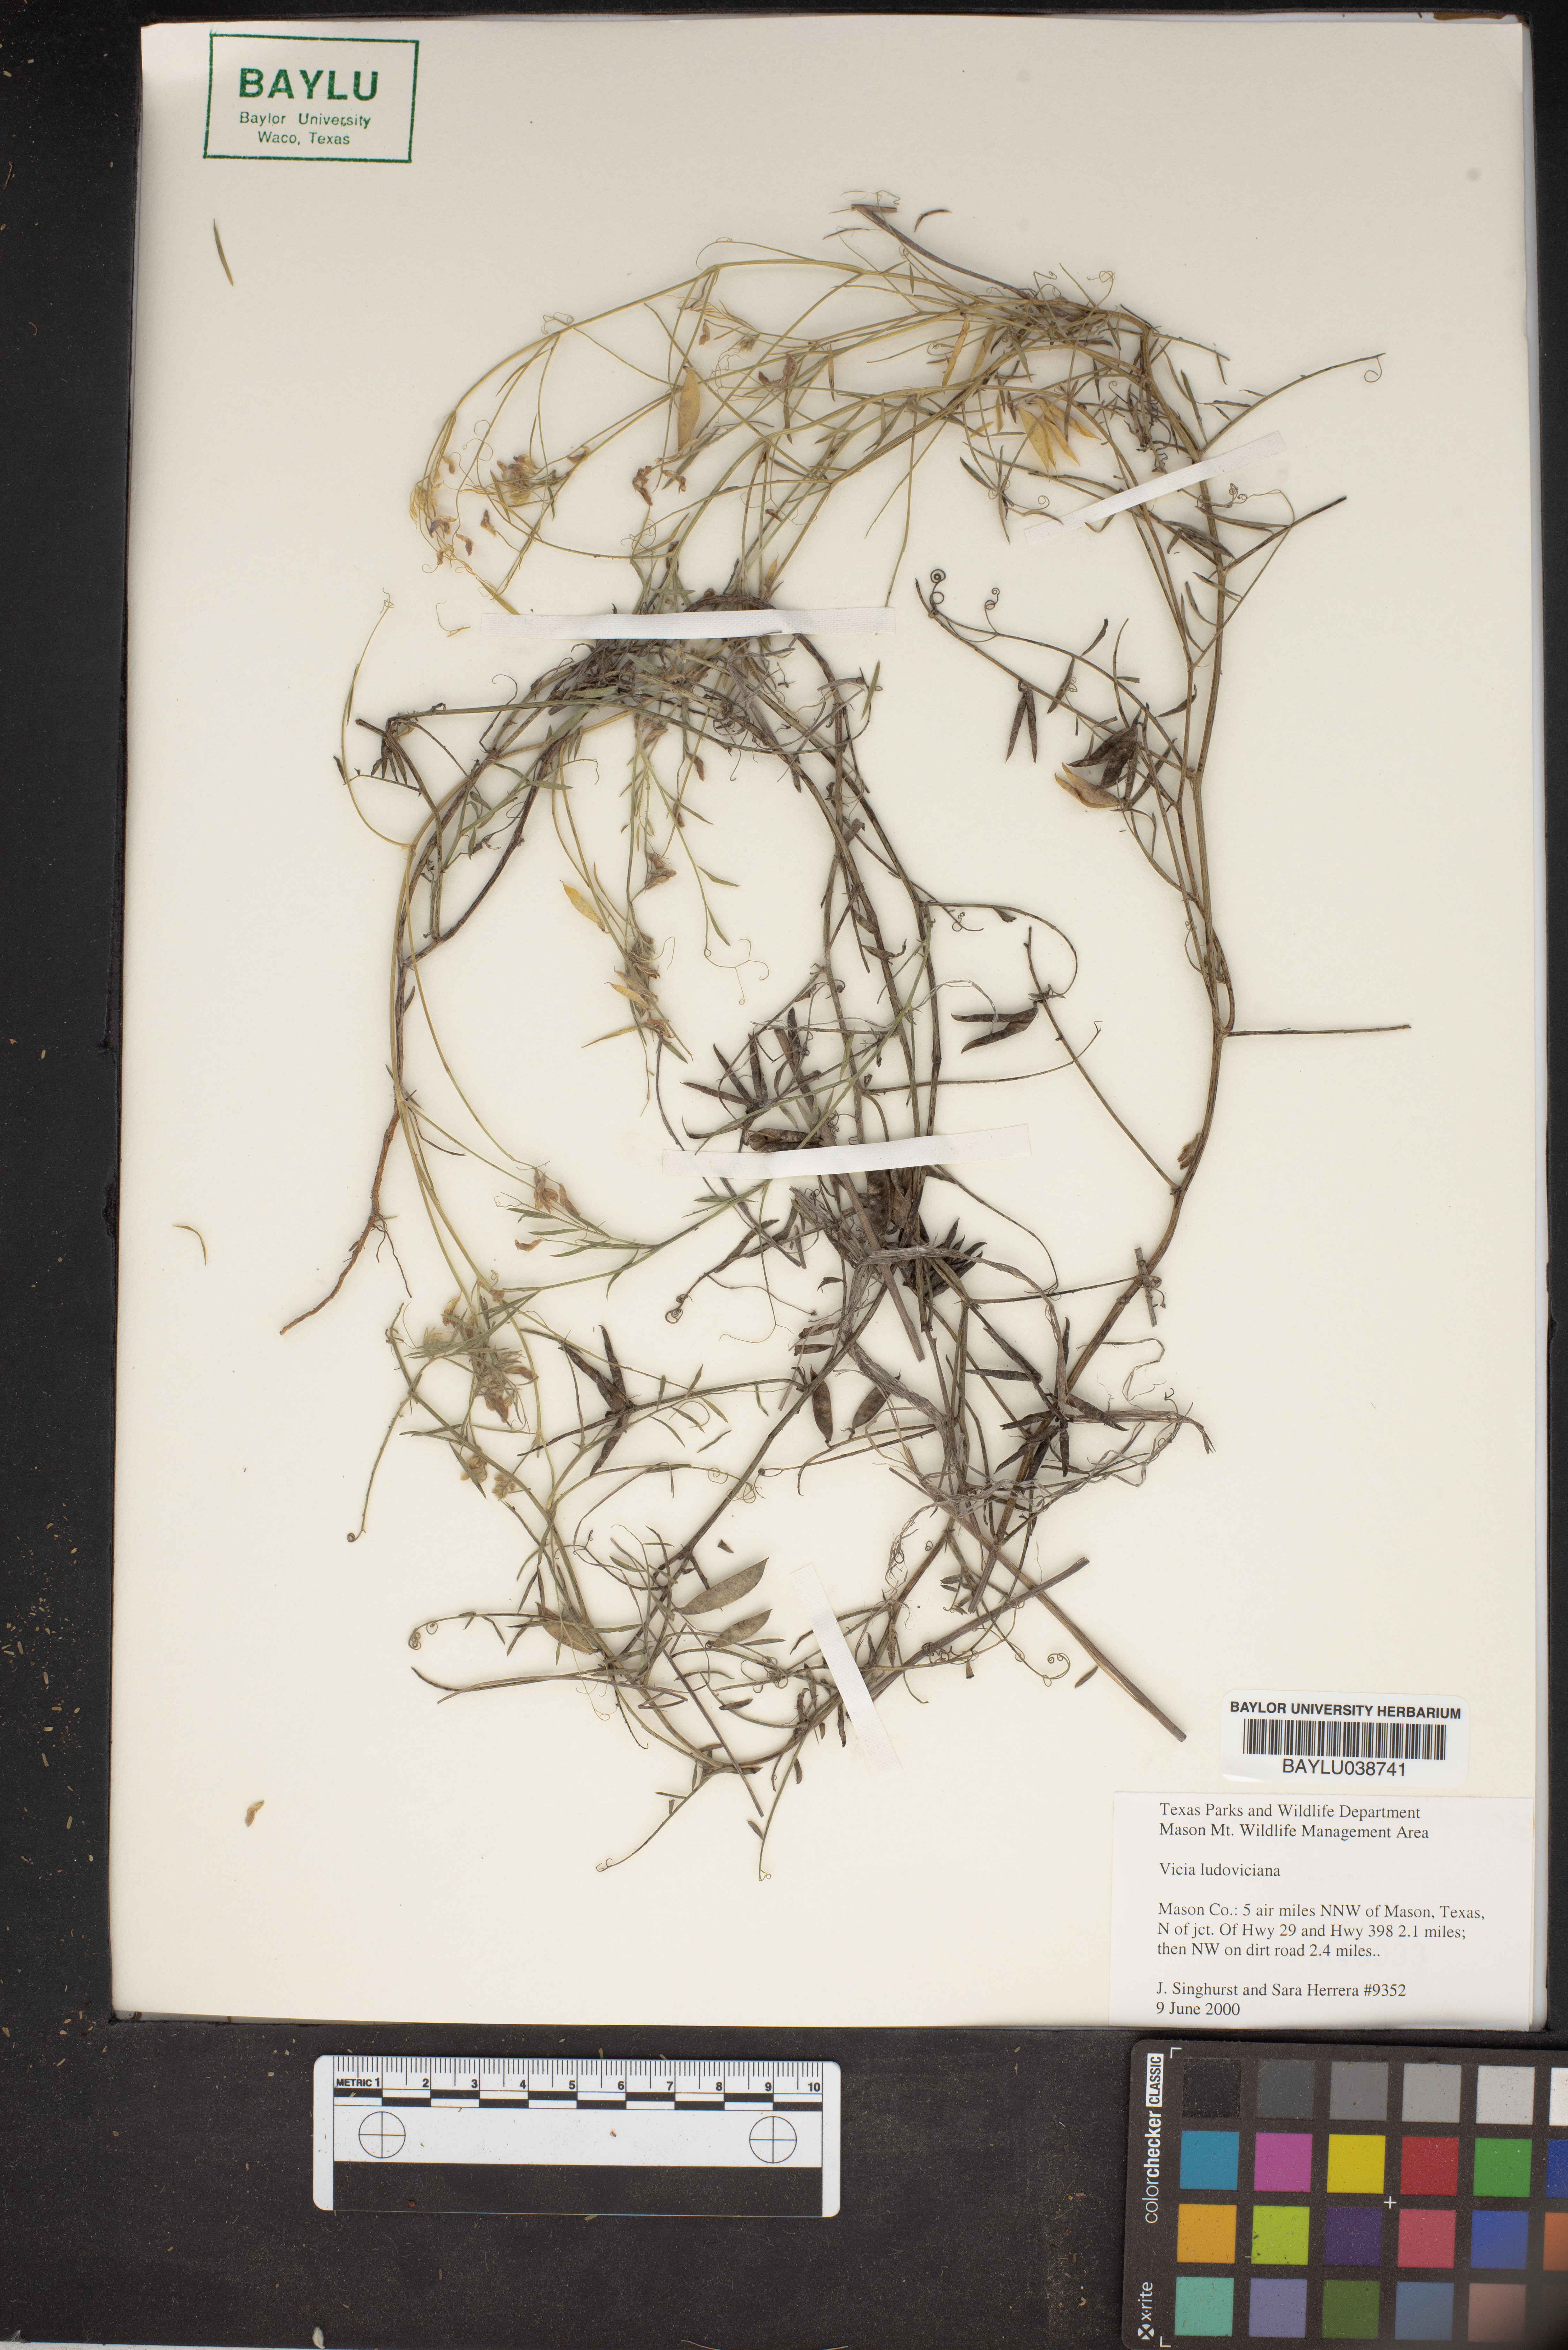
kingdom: Plantae
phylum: Tracheophyta
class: Magnoliopsida
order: Fabales
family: Fabaceae
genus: Vicia
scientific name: Vicia ludoviciana
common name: Louisiana vetch
